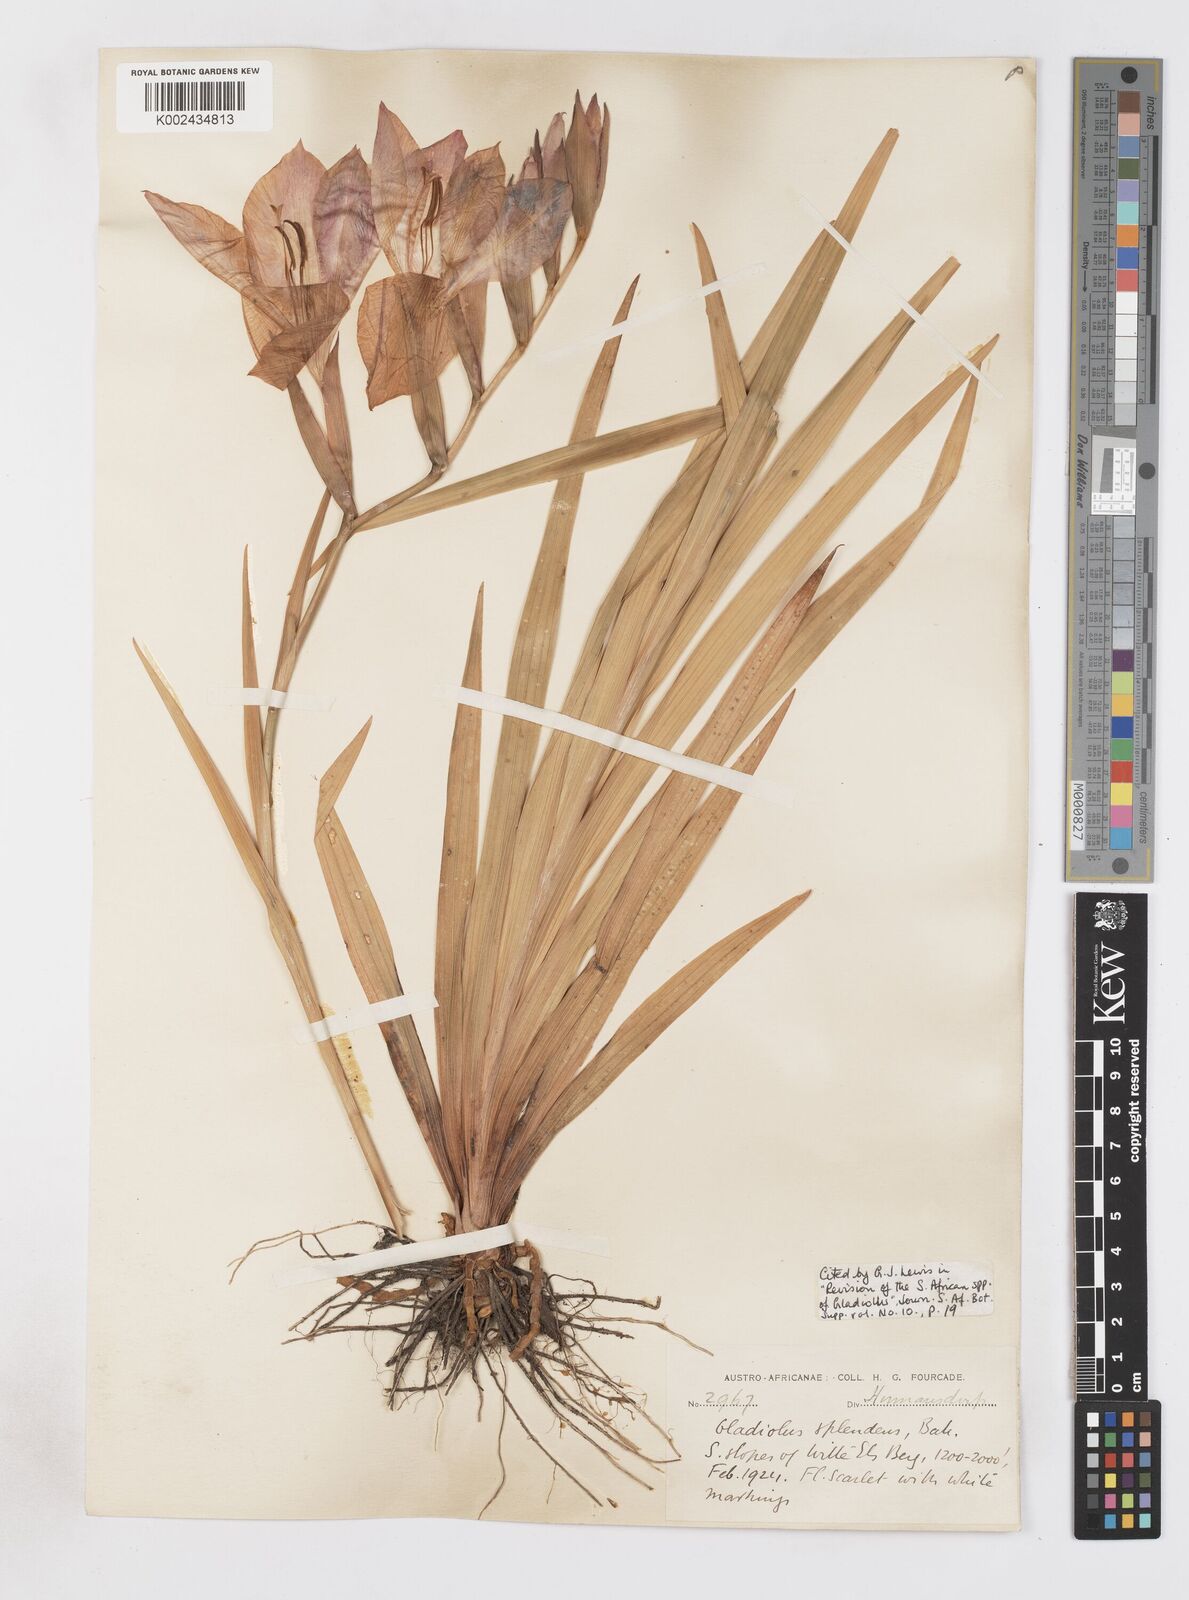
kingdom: Plantae
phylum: Tracheophyta
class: Liliopsida
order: Asparagales
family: Iridaceae
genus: Gladiolus
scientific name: Gladiolus sempervirens
